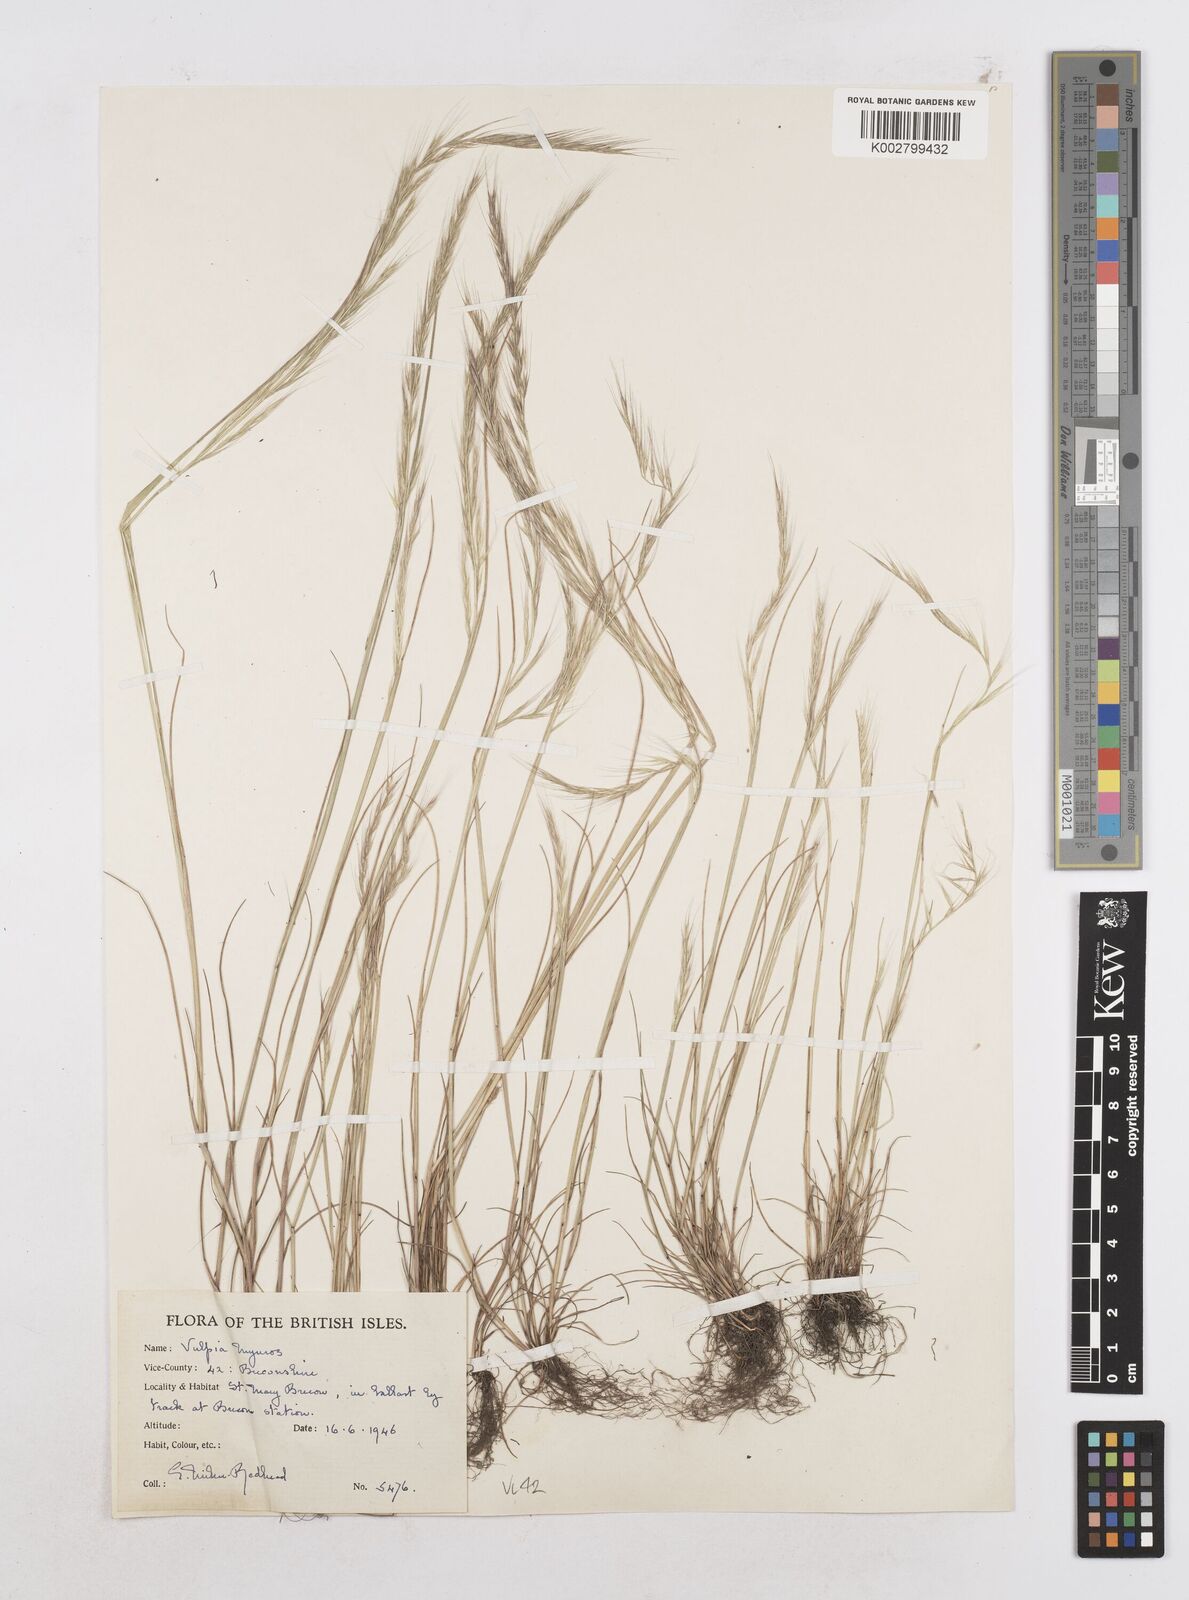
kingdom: Plantae
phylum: Tracheophyta
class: Liliopsida
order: Poales
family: Poaceae
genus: Festuca
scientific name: Festuca myuros
